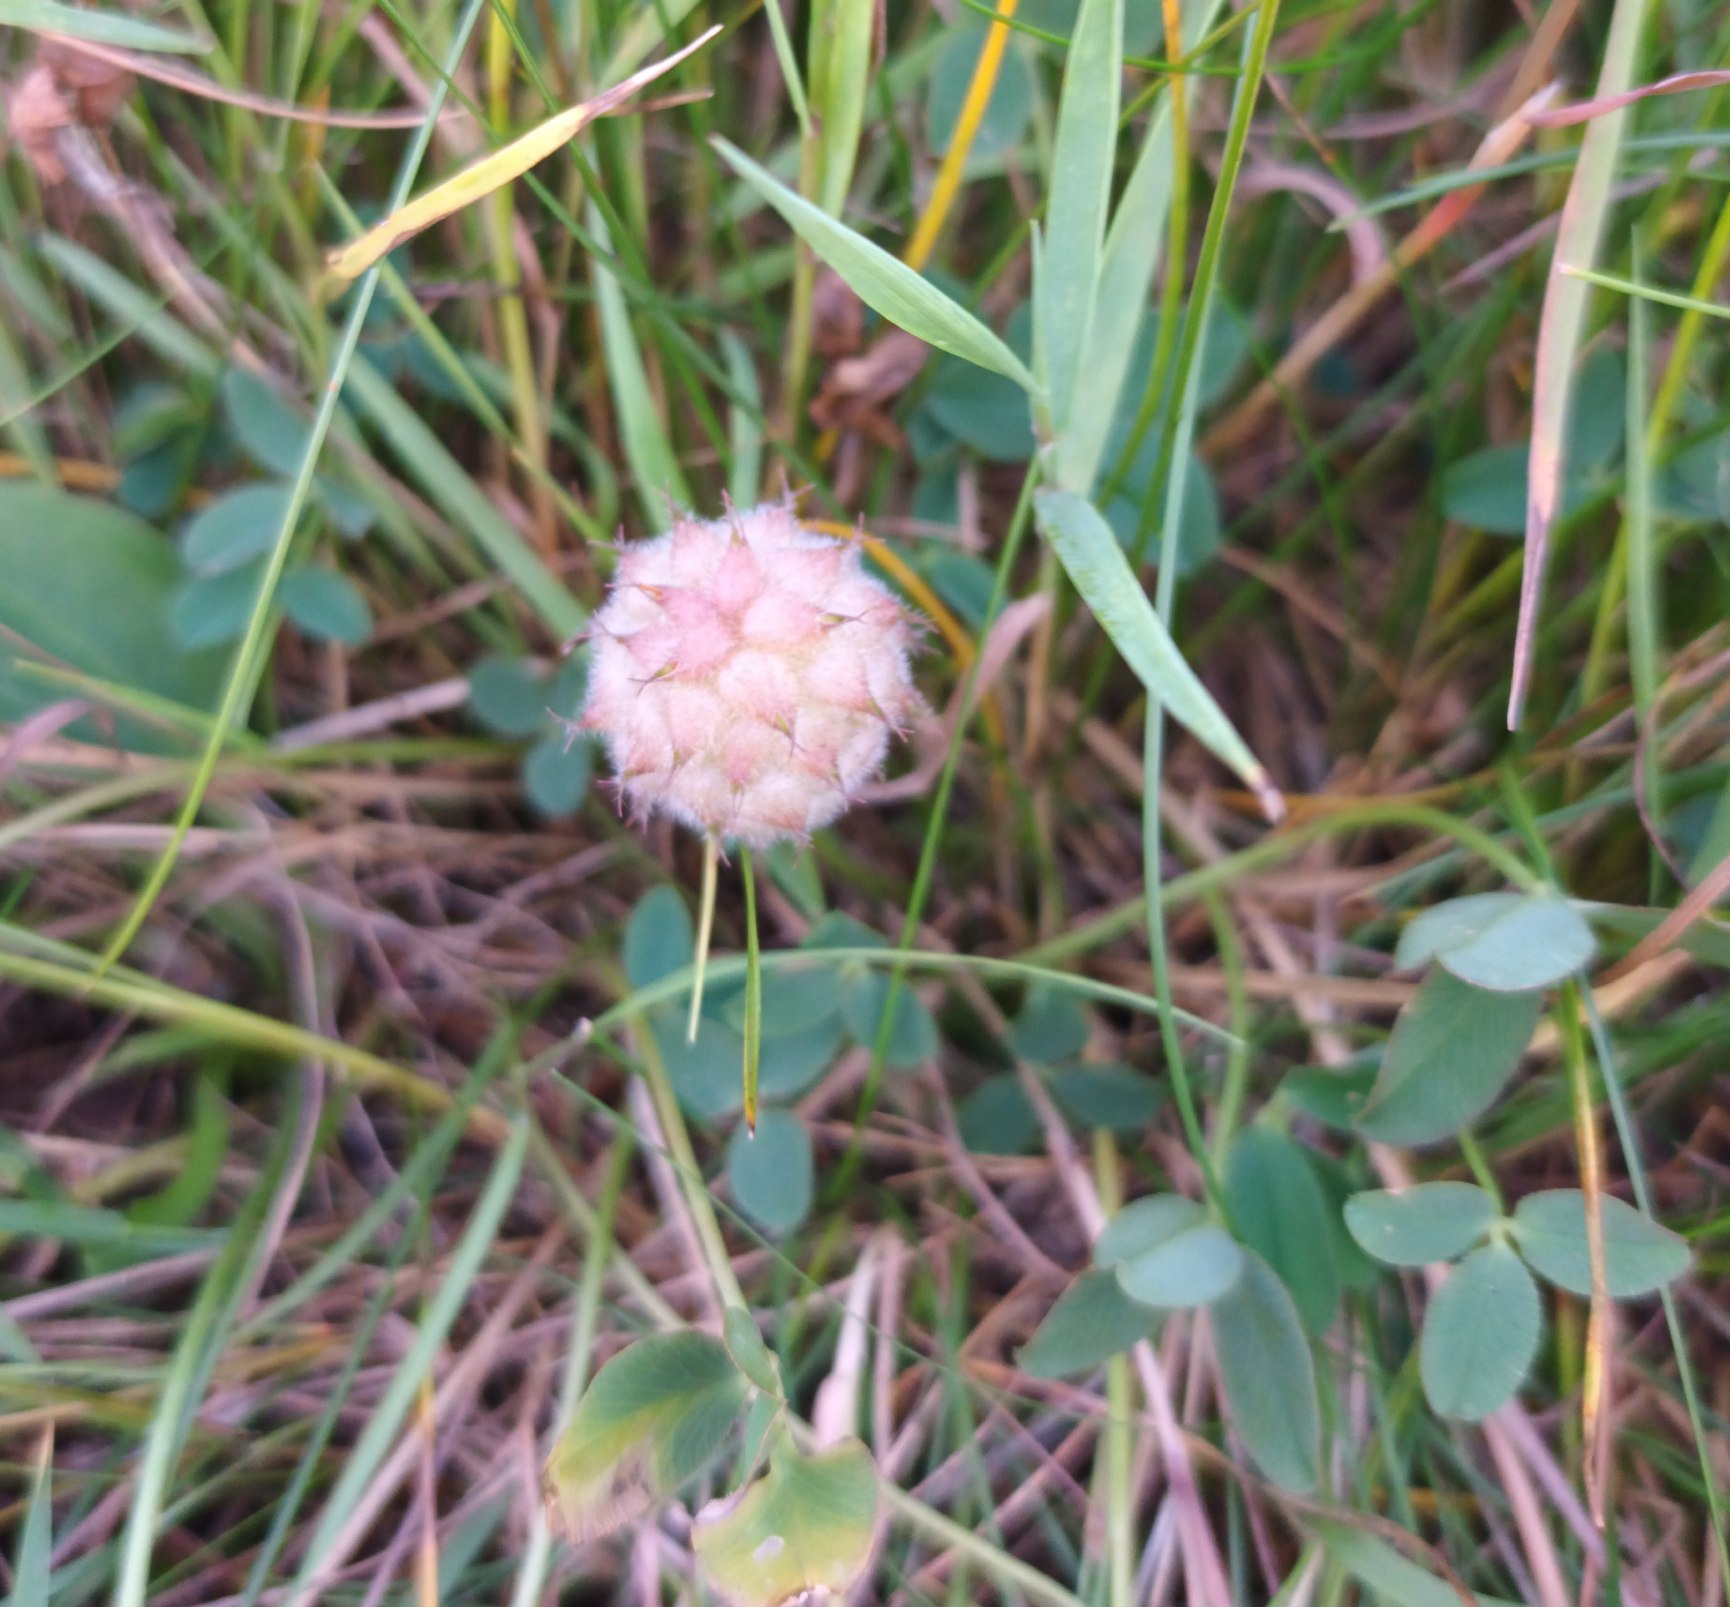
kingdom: Plantae
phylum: Tracheophyta
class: Magnoliopsida
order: Fabales
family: Fabaceae
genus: Trifolium
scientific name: Trifolium fragiferum
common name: Jordbær-kløver
